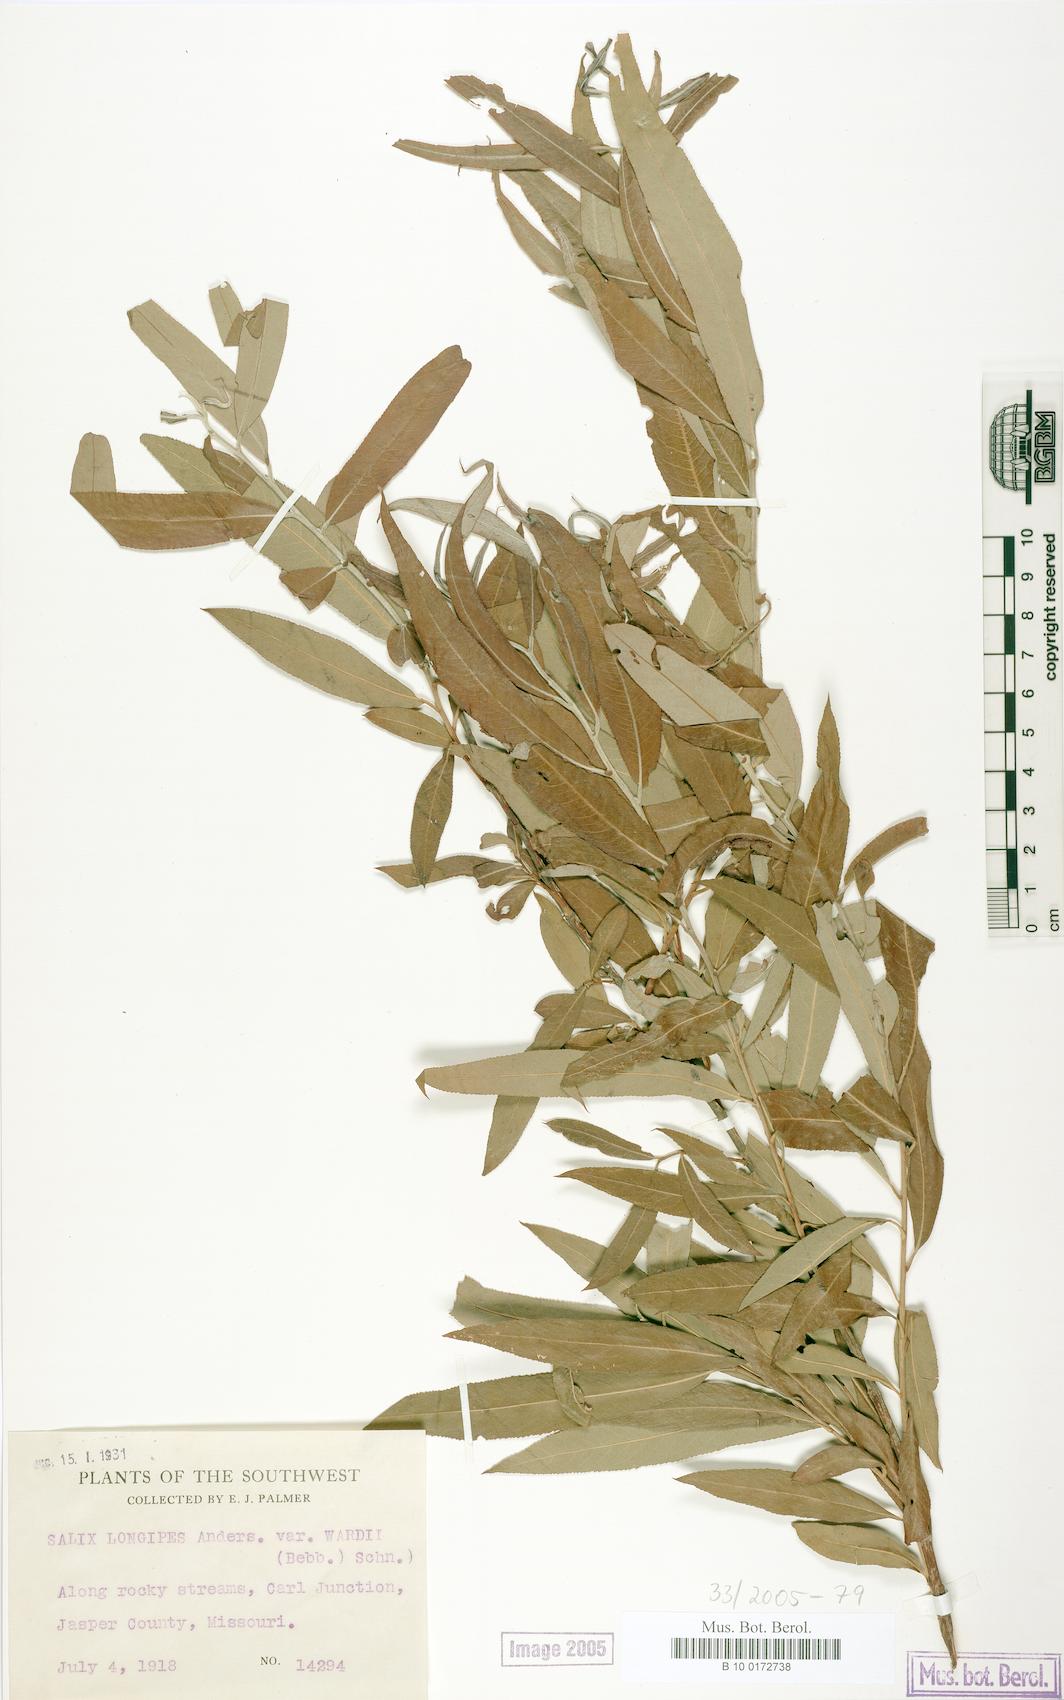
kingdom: Plantae
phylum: Tracheophyta
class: Magnoliopsida
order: Malpighiales
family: Salicaceae
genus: Salix
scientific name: Salix caroliniana
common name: Carolina willow
